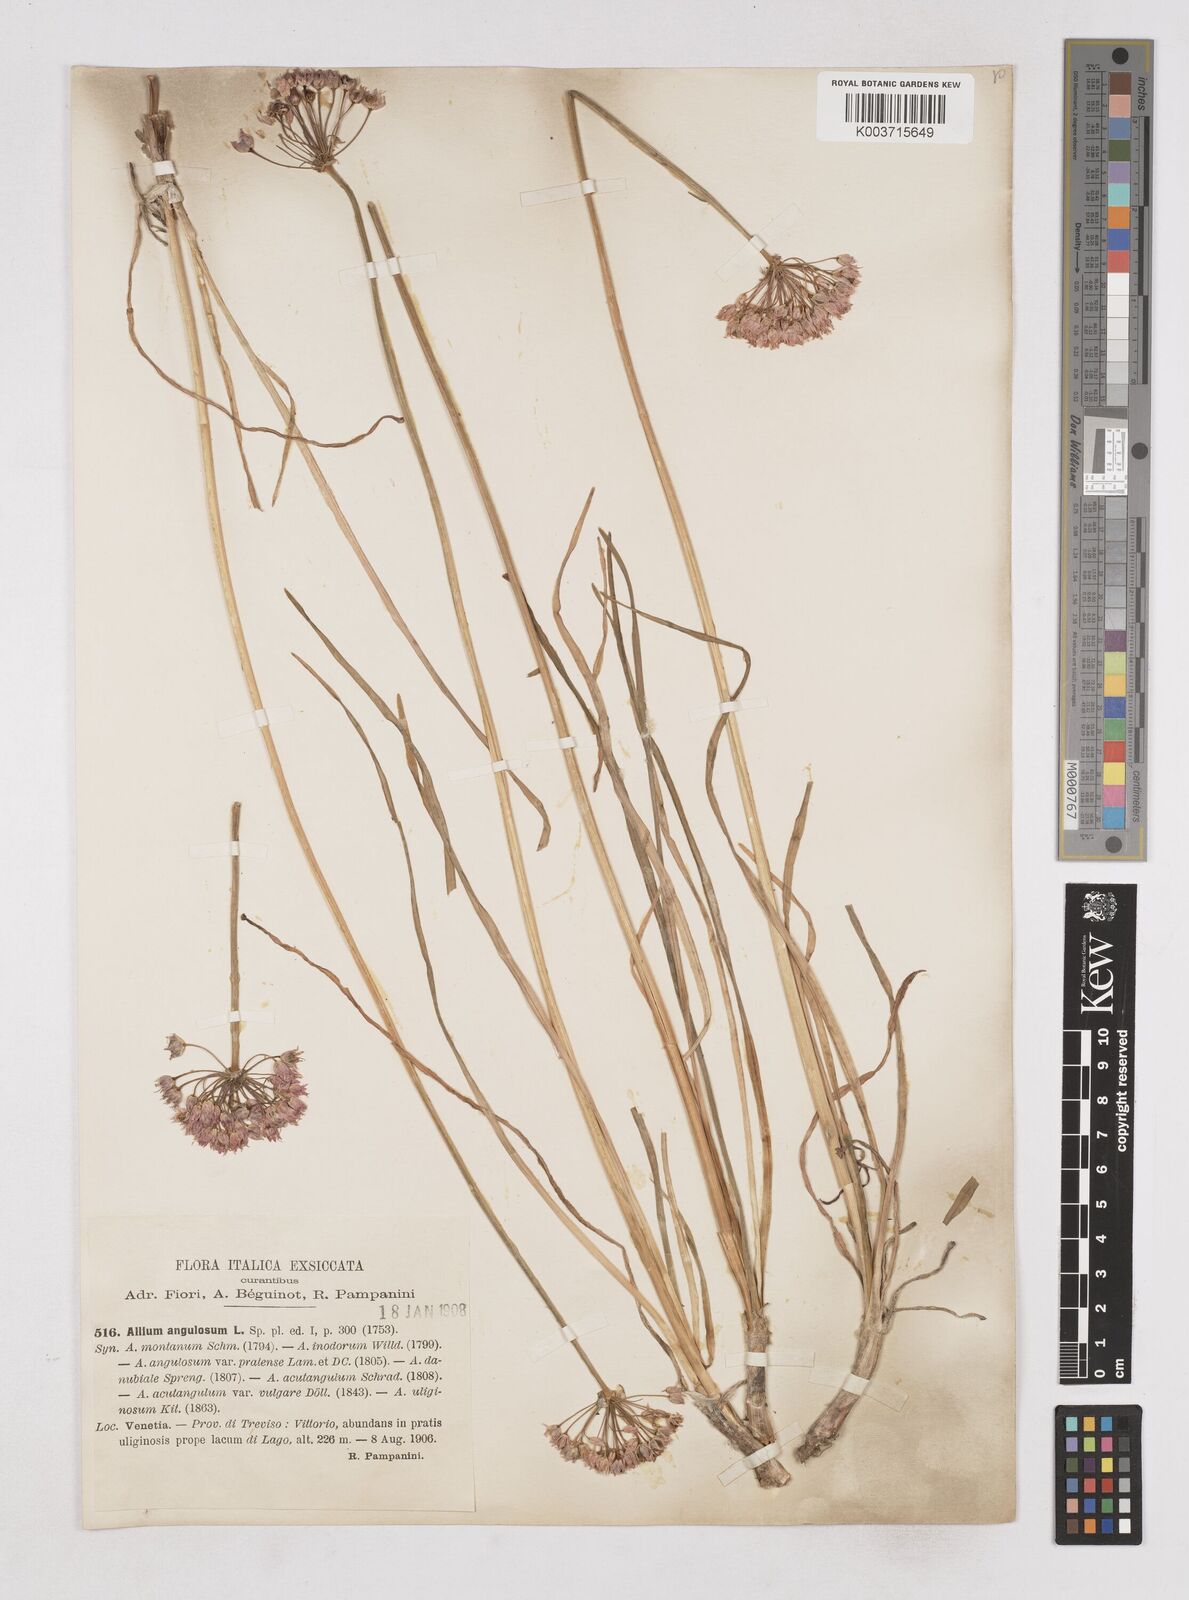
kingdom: Plantae
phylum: Tracheophyta
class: Liliopsida
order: Asparagales
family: Amaryllidaceae
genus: Allium
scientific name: Allium angulosum
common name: Mouse garlic
